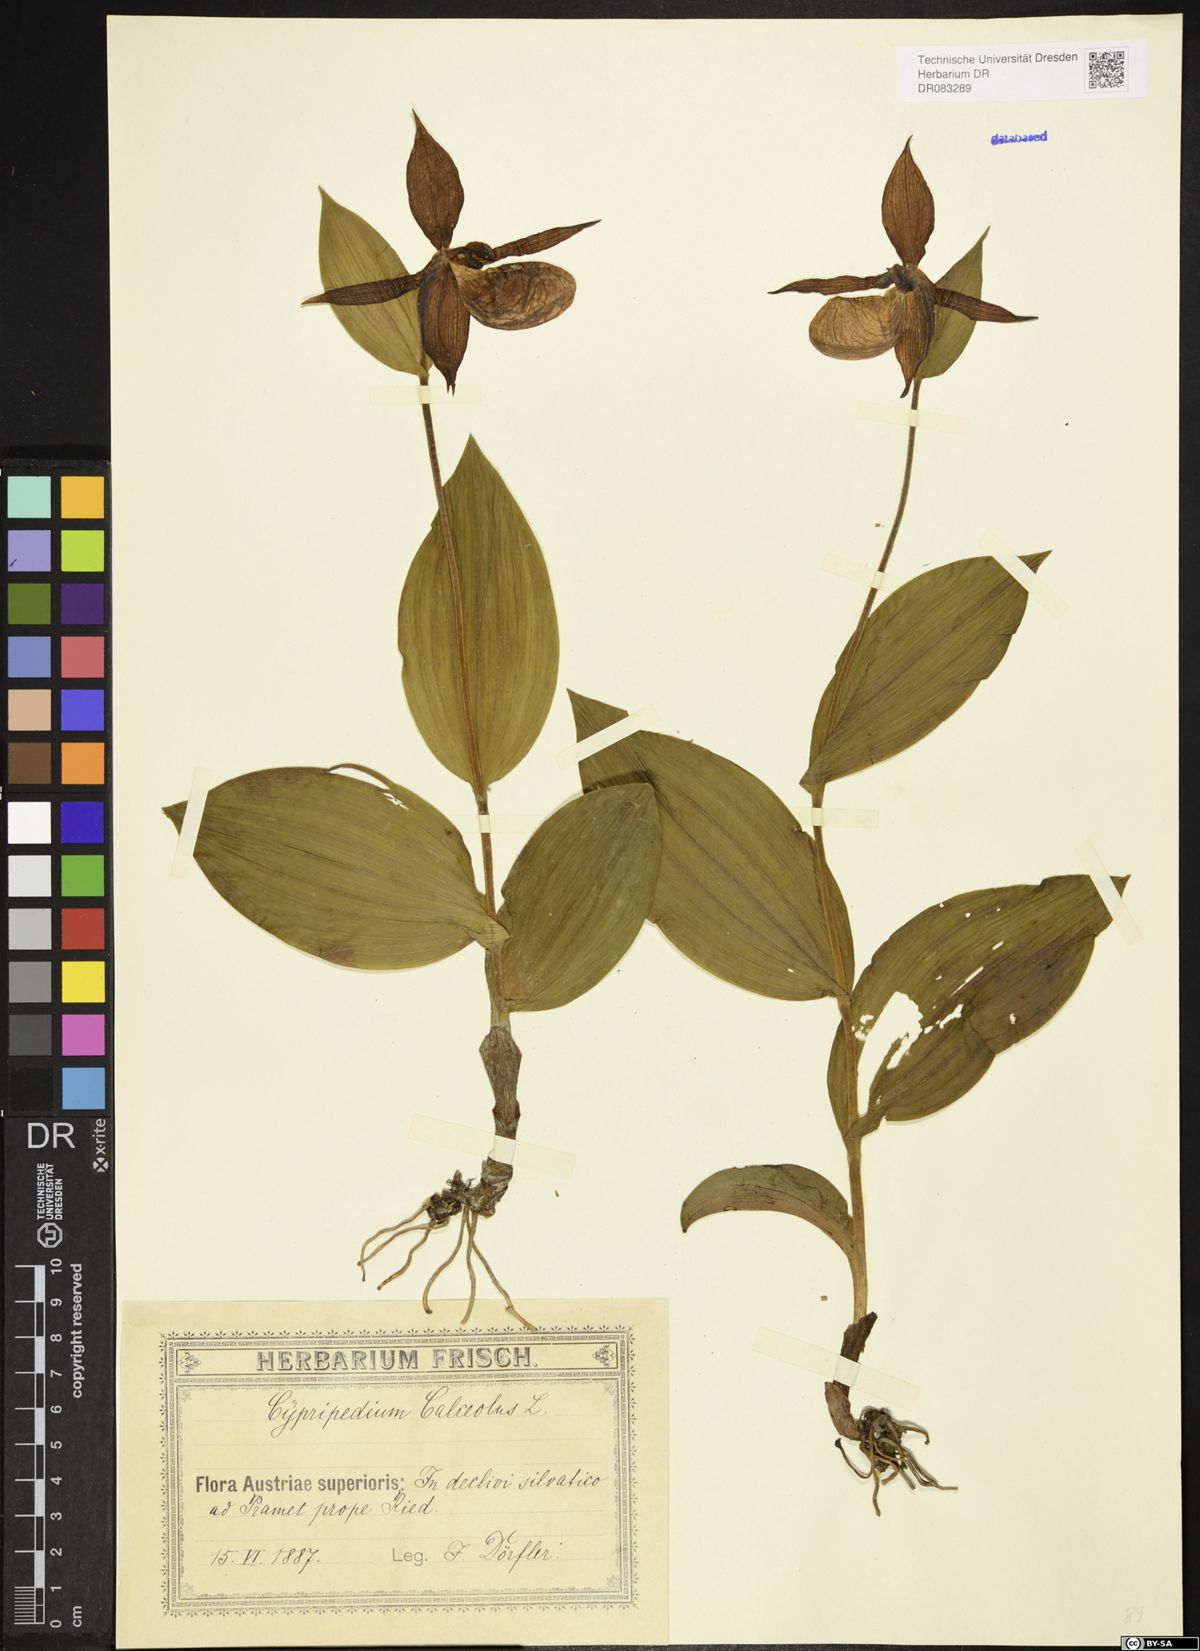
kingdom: Plantae
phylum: Tracheophyta
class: Liliopsida
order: Asparagales
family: Orchidaceae
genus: Cypripedium
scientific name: Cypripedium calceolus
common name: Lady's-slipper
